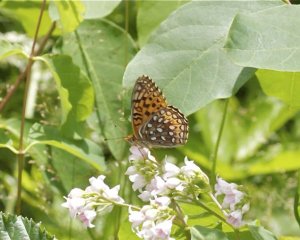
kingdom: Animalia
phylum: Arthropoda
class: Insecta
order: Lepidoptera
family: Nymphalidae
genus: Speyeria
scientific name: Speyeria atlantis
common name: Atlantis Fritillary
